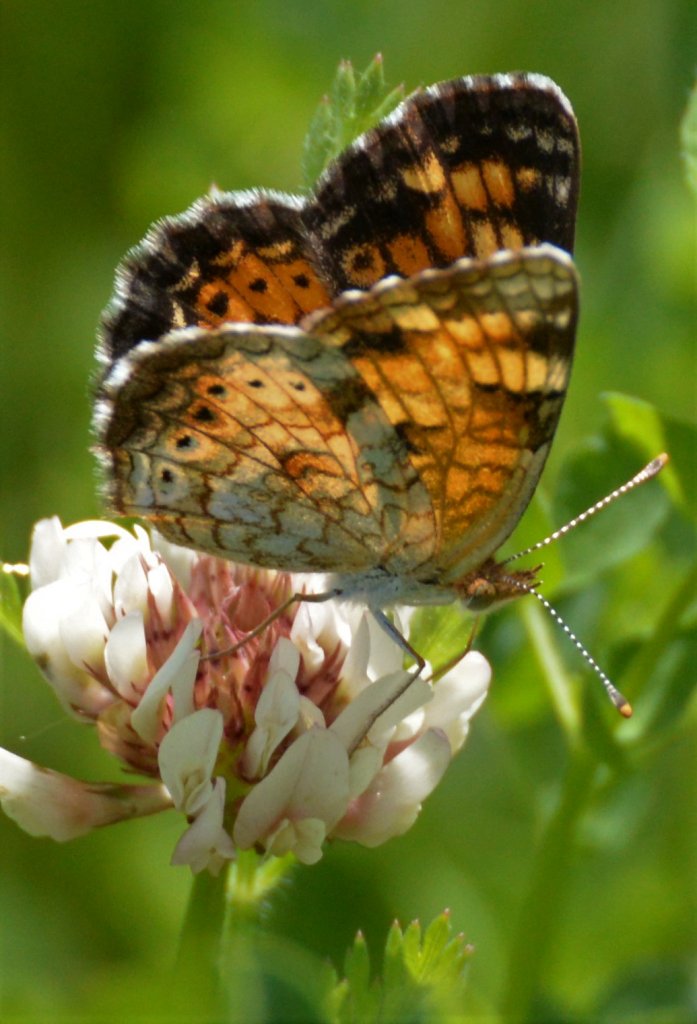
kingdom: Animalia
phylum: Arthropoda
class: Insecta
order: Lepidoptera
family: Nymphalidae
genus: Phyciodes
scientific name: Phyciodes tharos
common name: Northern Crescent
